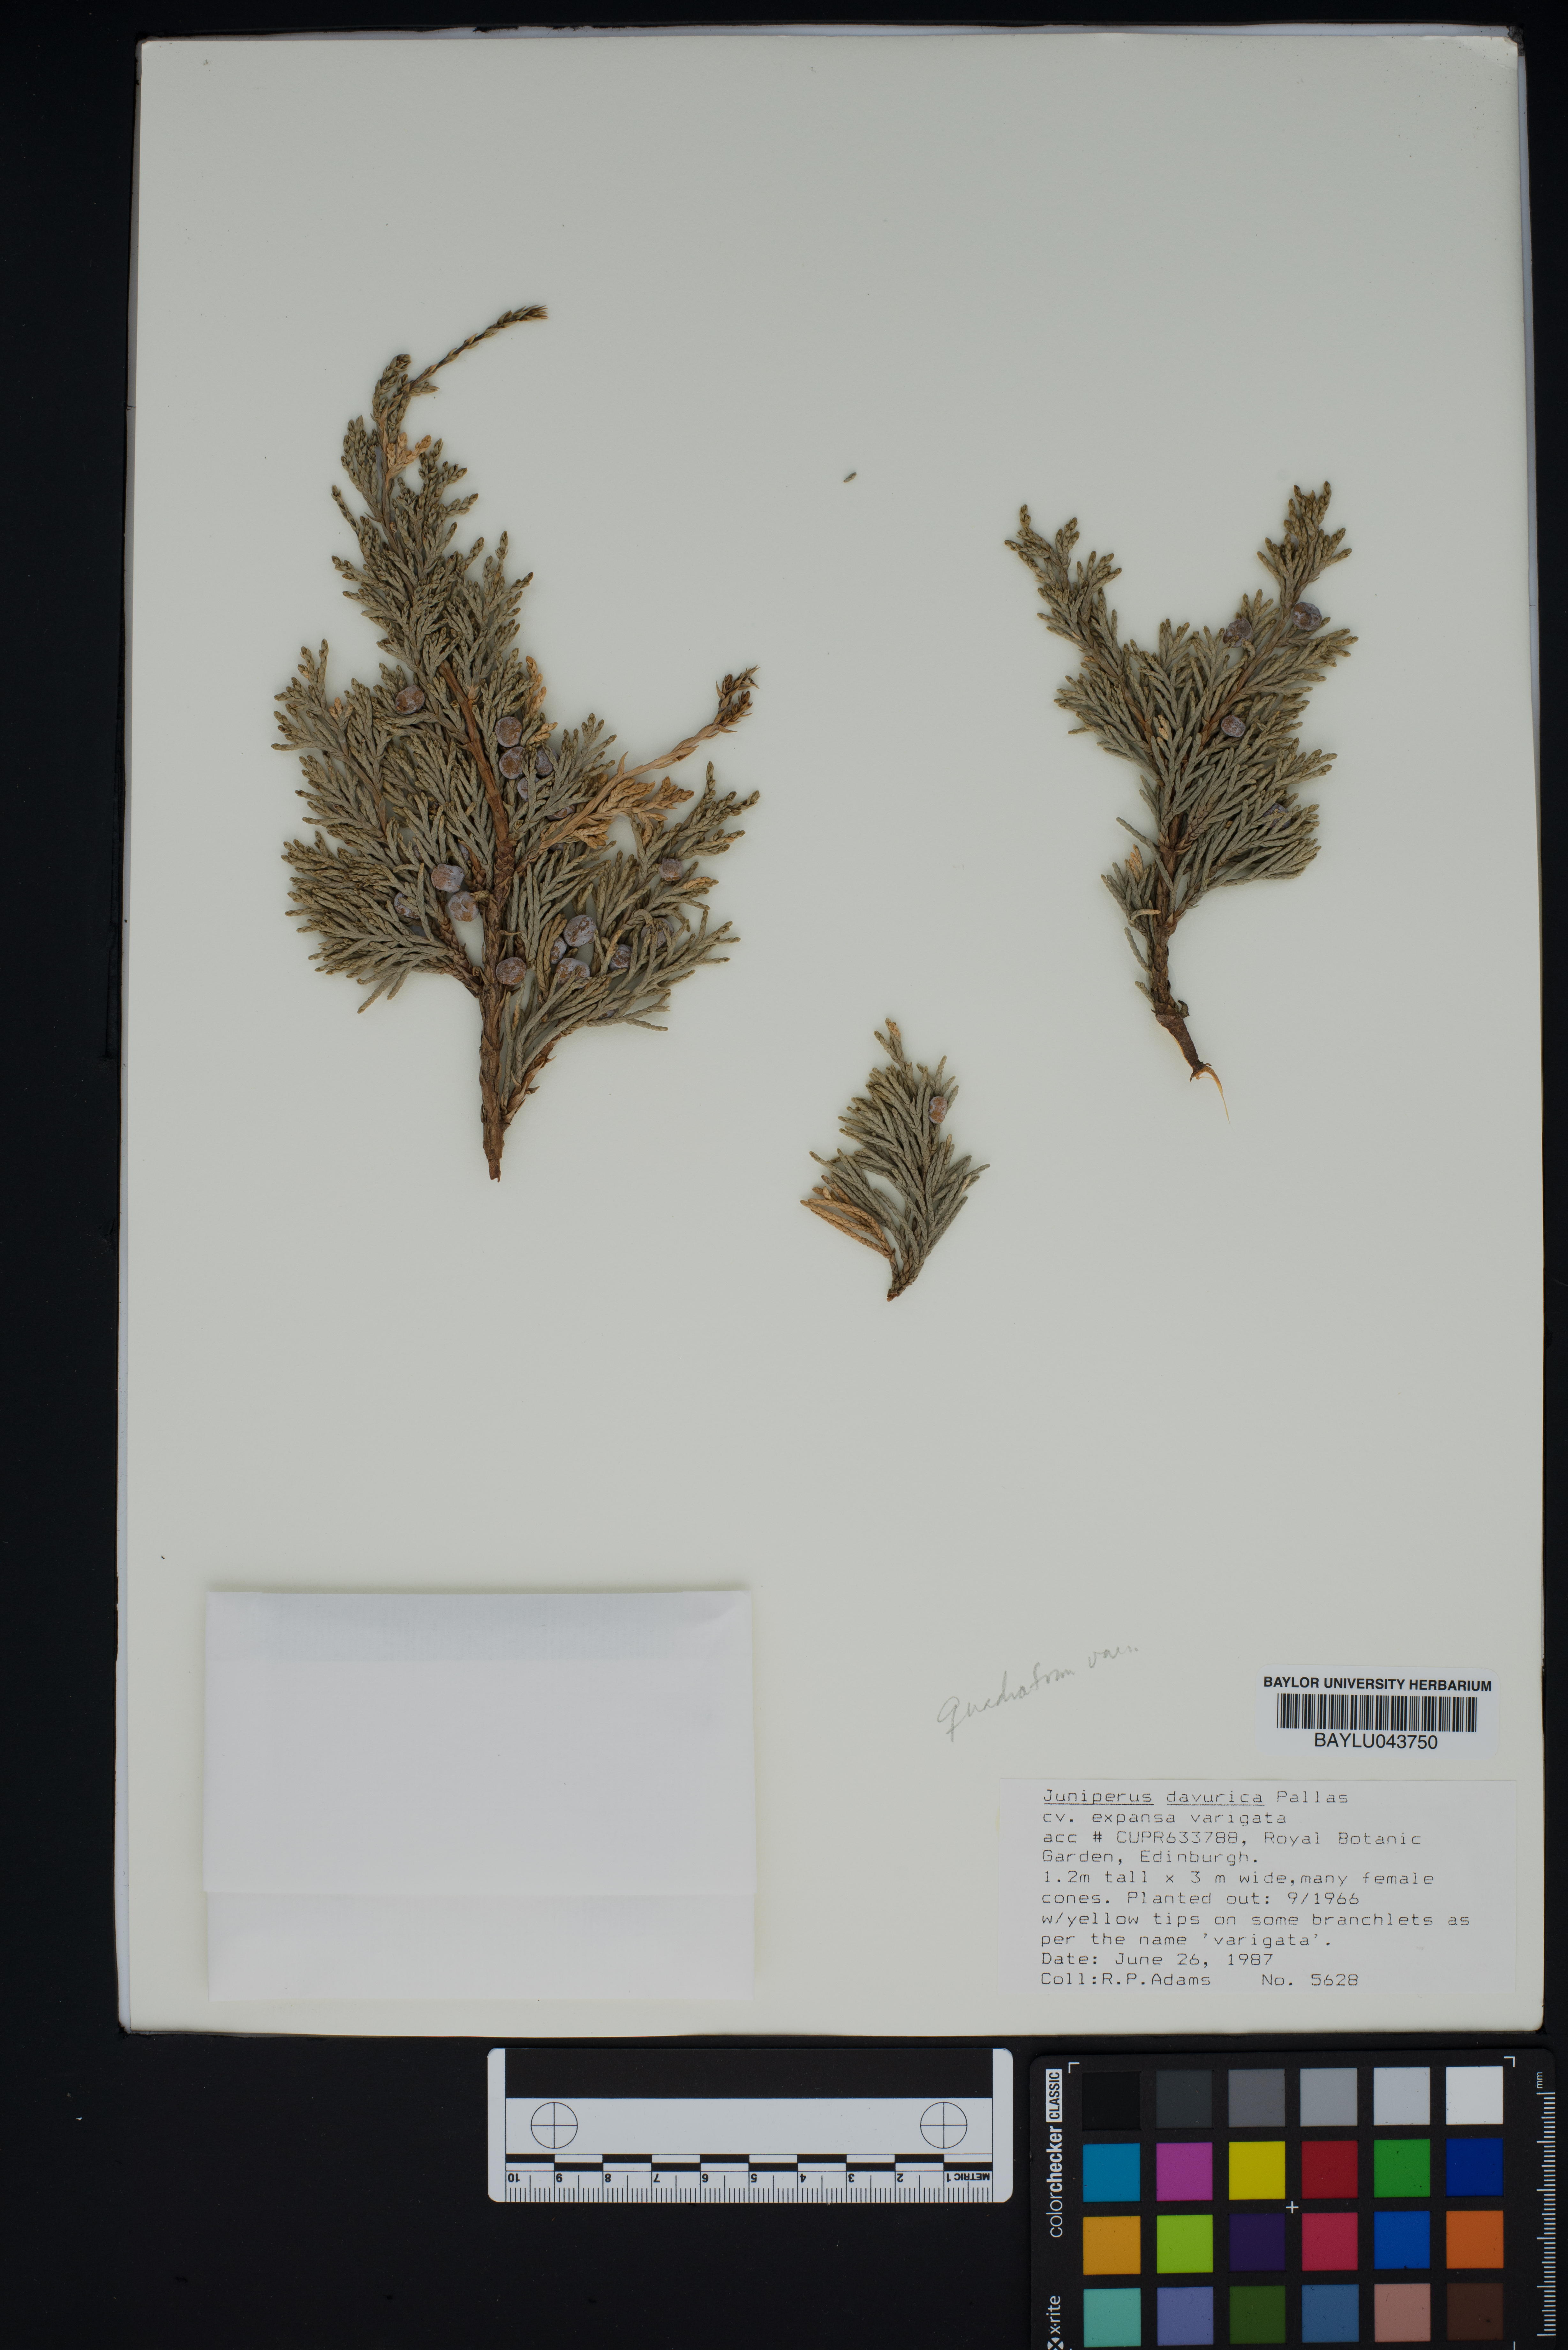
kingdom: Plantae
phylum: Tracheophyta
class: Pinopsida
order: Pinales
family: Cupressaceae
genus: Juniperus
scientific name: Juniperus sabina
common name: Savin
